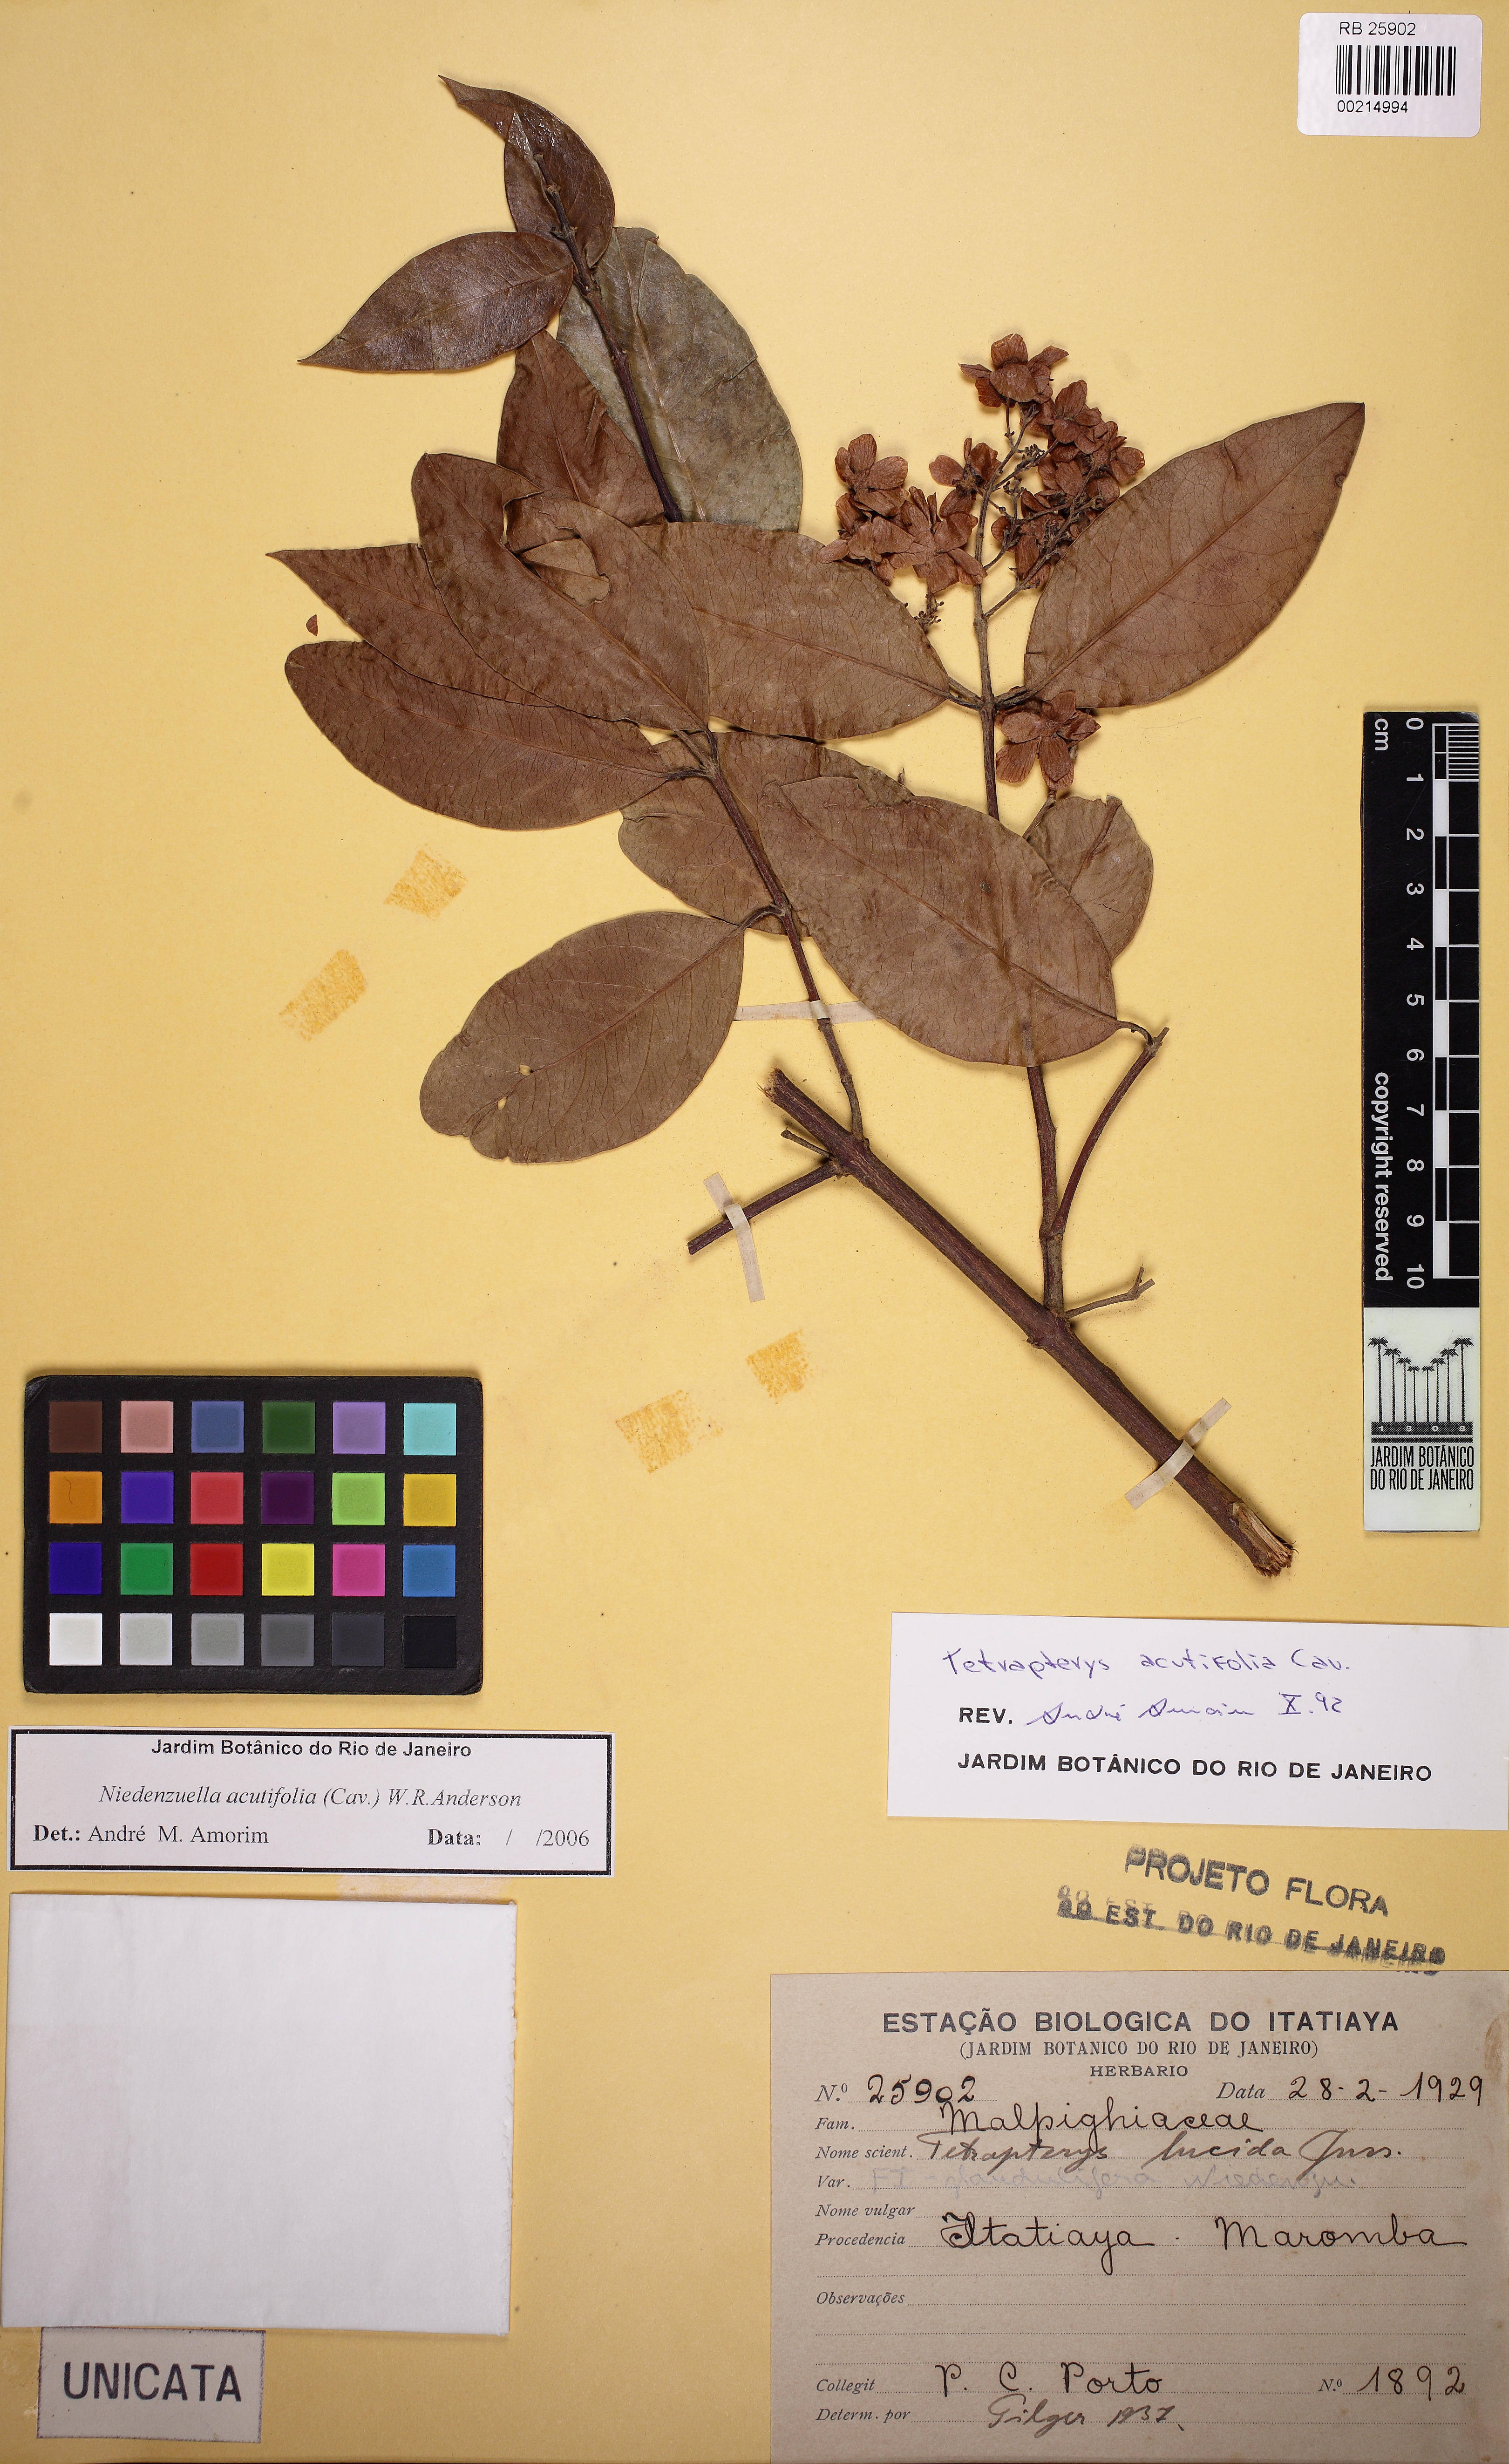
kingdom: Plantae
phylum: Tracheophyta
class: Magnoliopsida
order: Malpighiales
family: Malpighiaceae
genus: Niedenzuella
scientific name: Niedenzuella acutifolia
